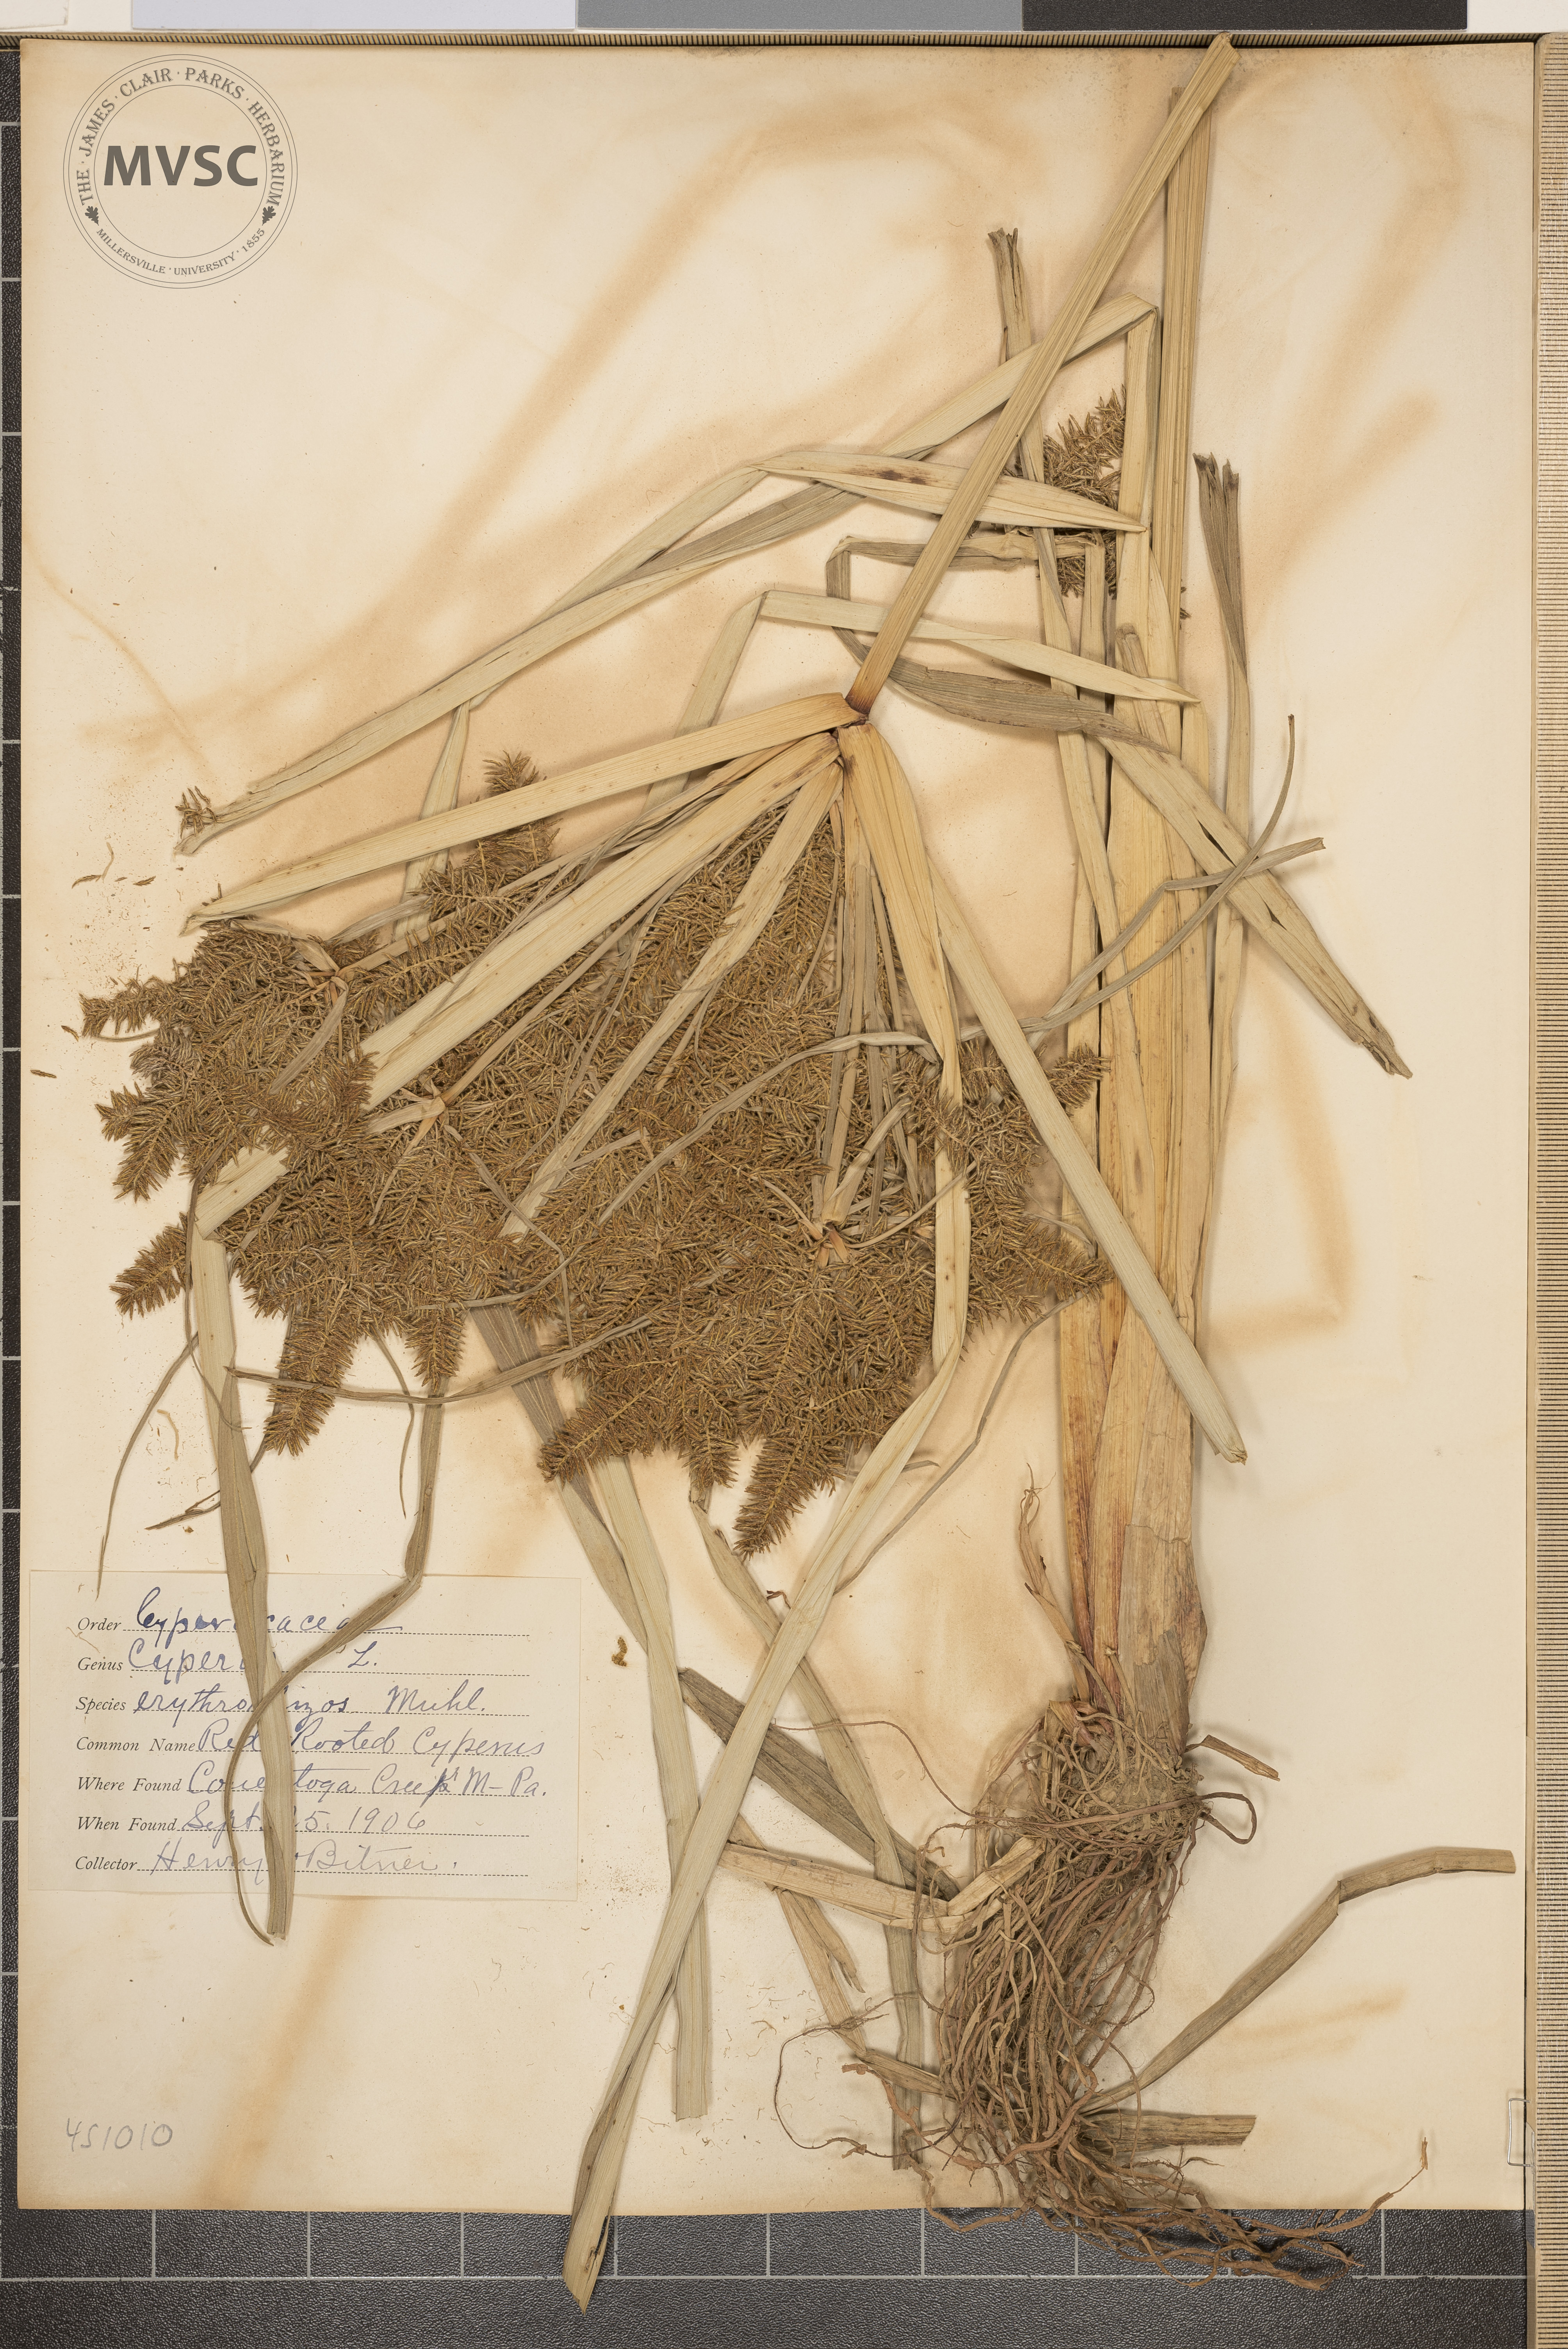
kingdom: Plantae
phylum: Tracheophyta
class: Liliopsida
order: Poales
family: Cyperaceae
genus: Cyperus
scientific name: Cyperus erythrorhizos
